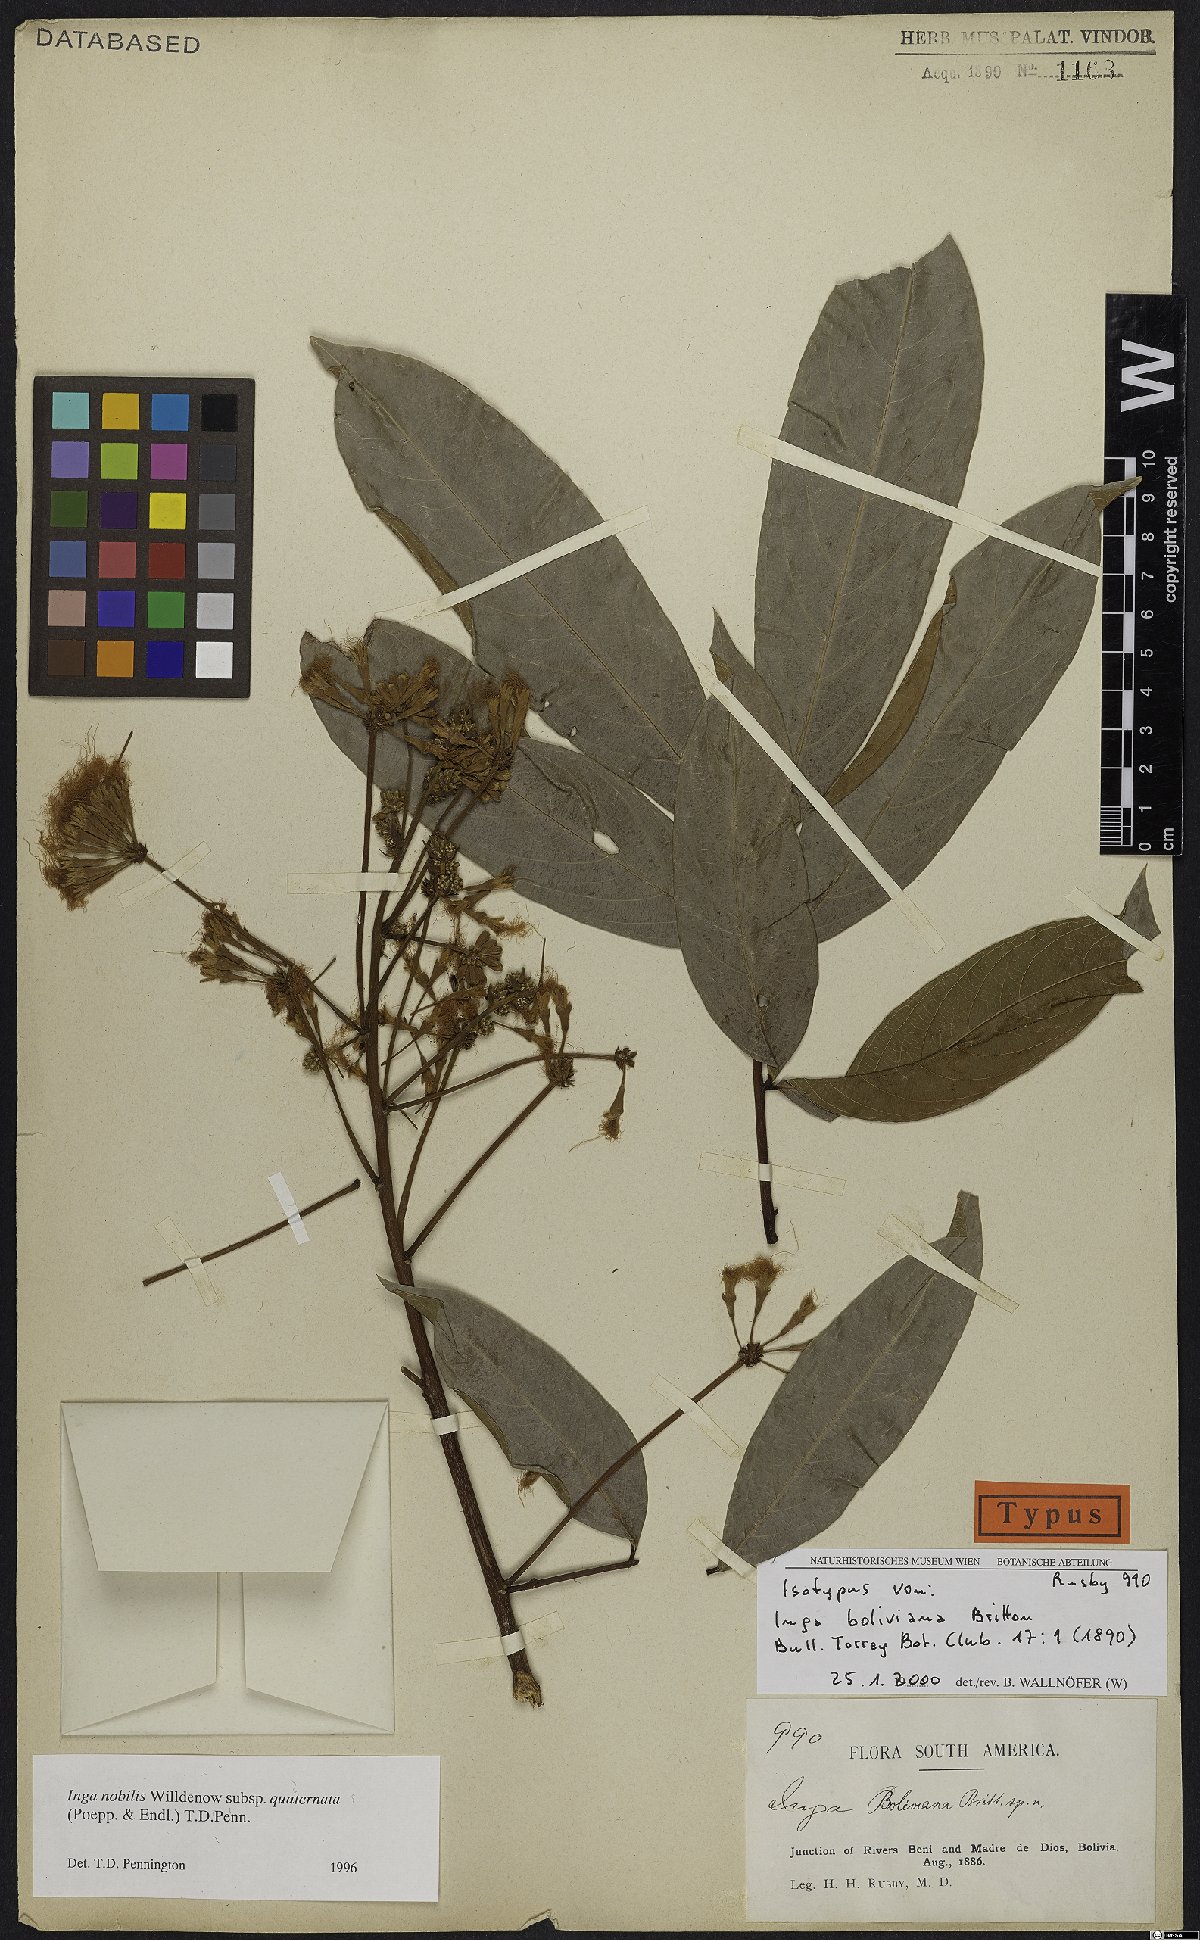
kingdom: Plantae
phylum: Tracheophyta
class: Magnoliopsida
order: Fabales
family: Fabaceae
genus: Inga
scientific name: Inga nobilis
